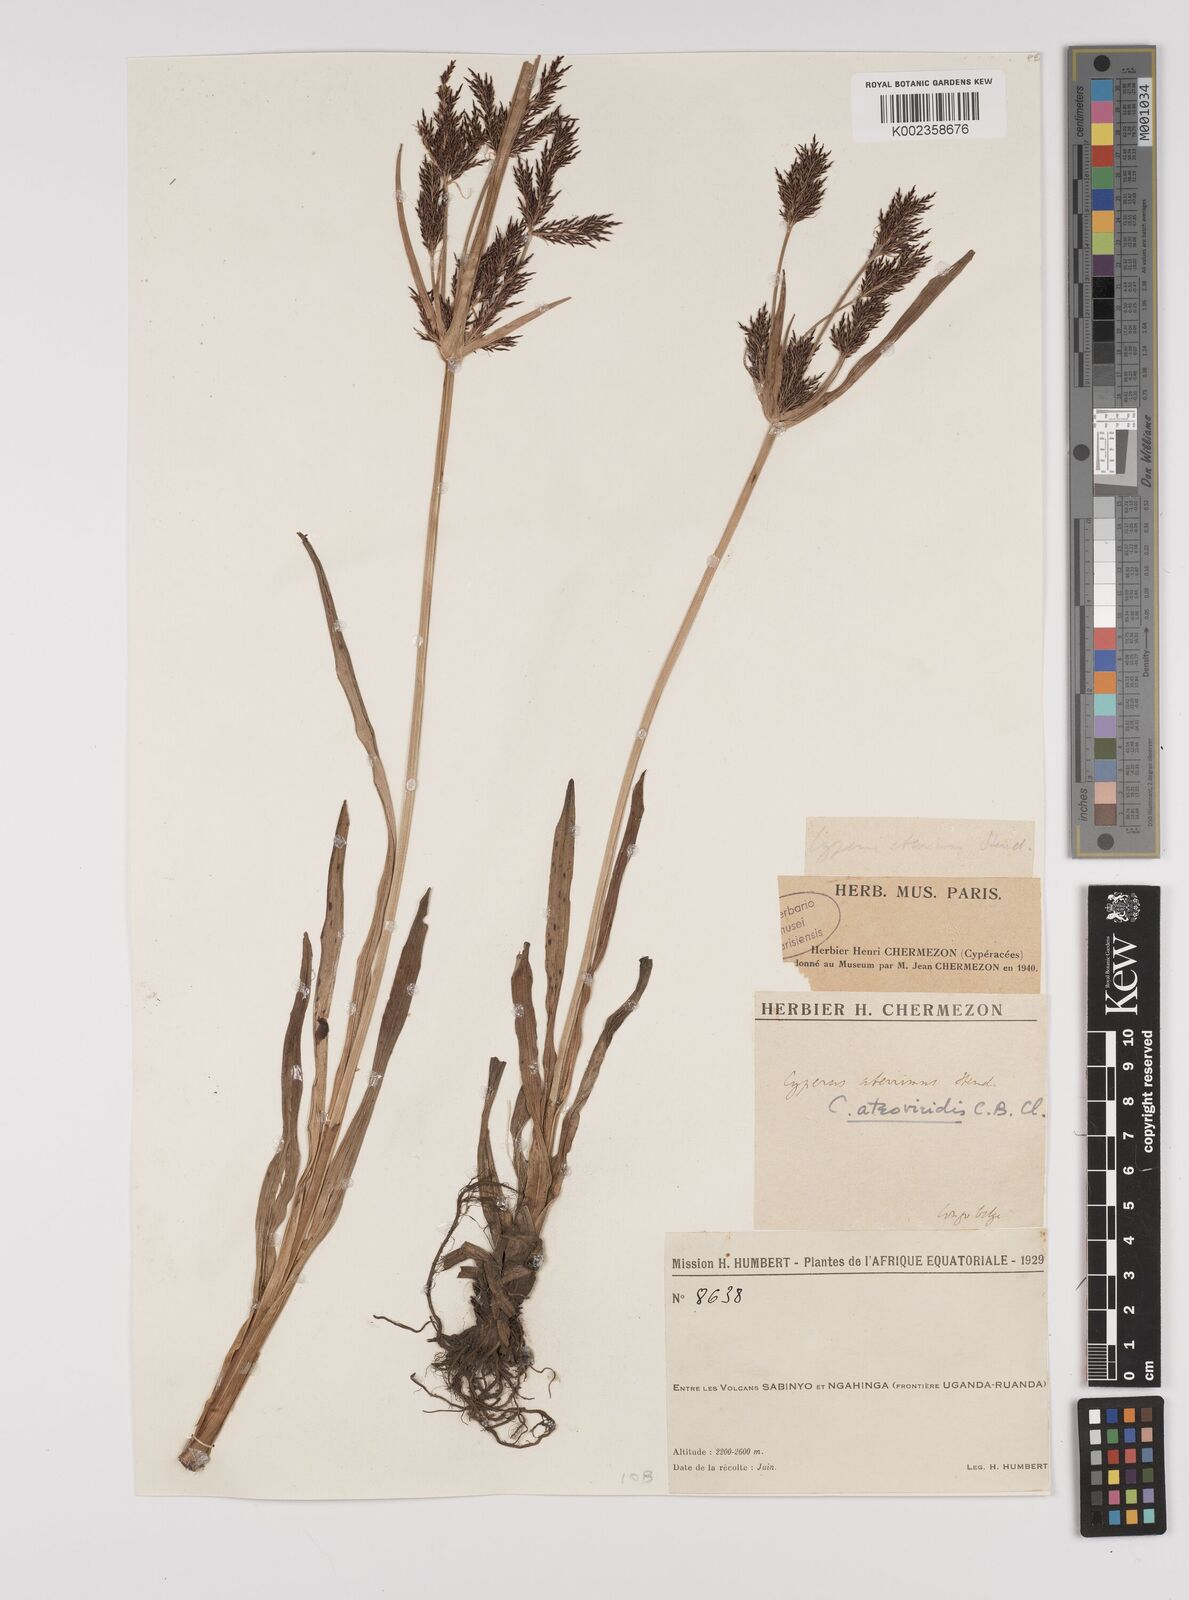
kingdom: Plantae
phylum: Tracheophyta
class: Liliopsida
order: Poales
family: Cyperaceae
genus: Cyperus
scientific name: Cyperus aterrimus
